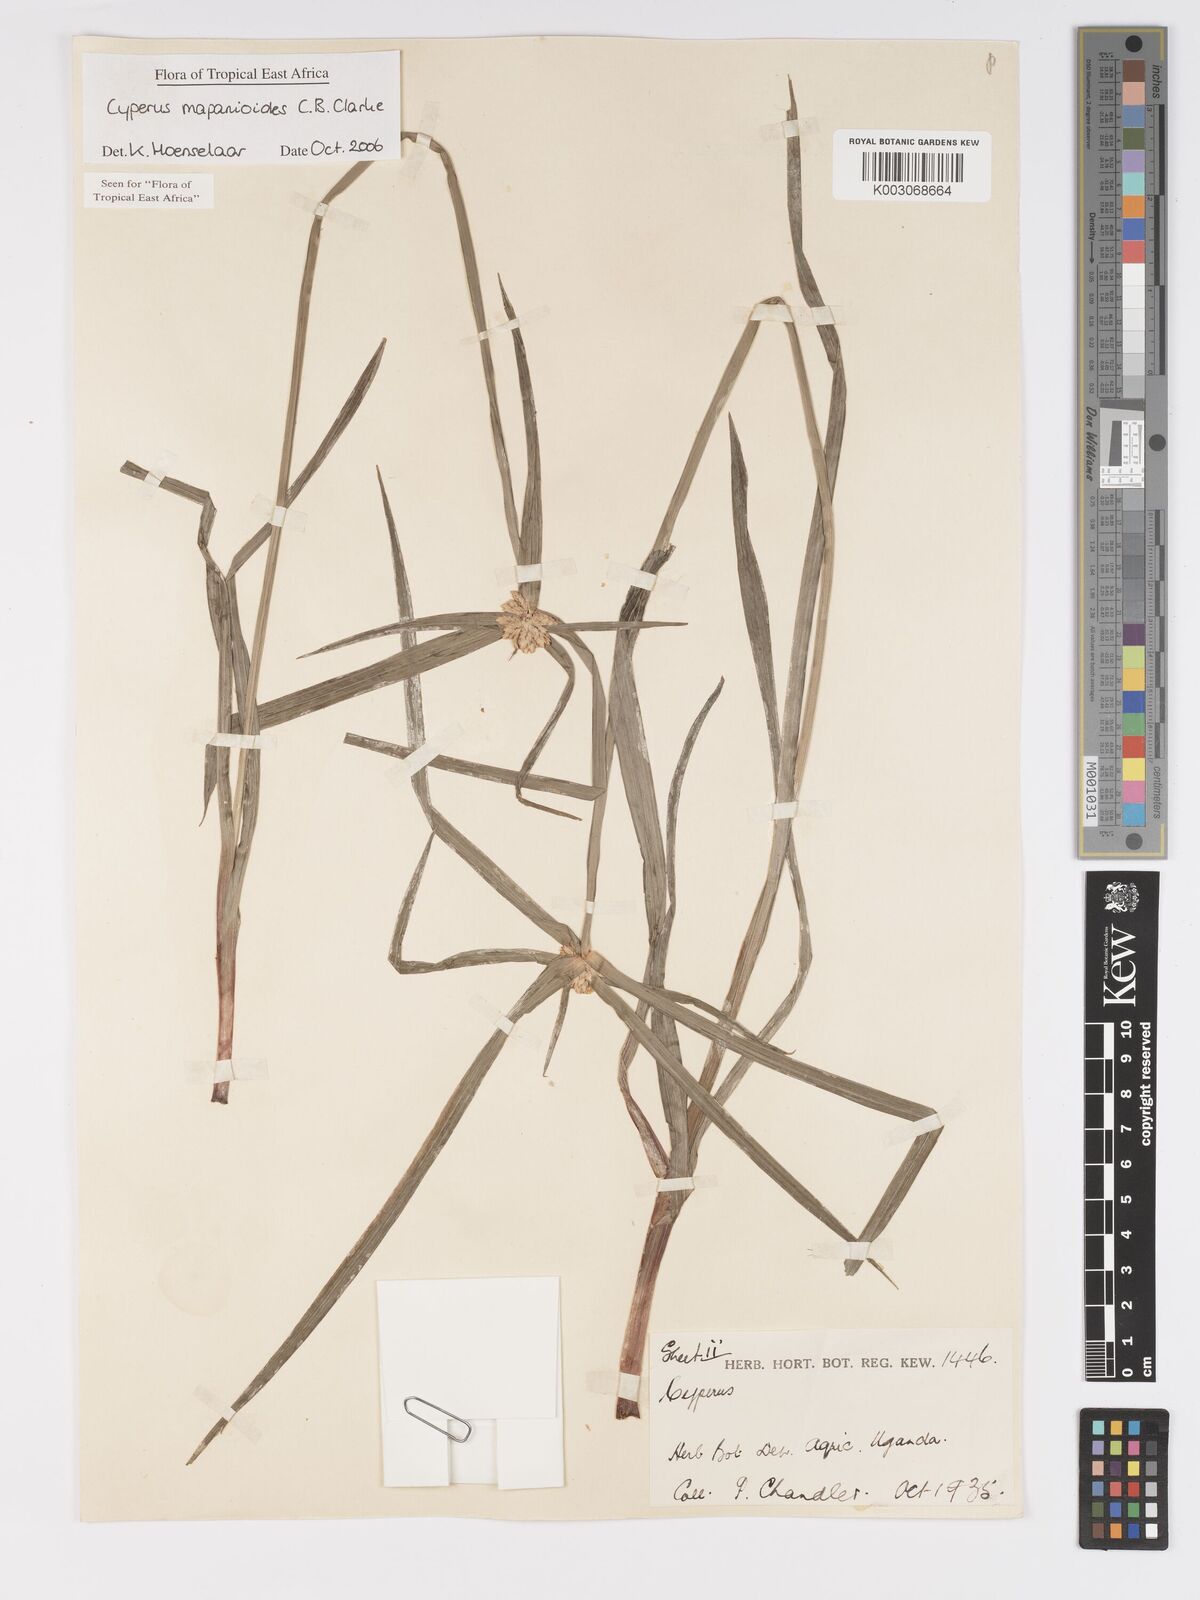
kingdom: Plantae
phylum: Tracheophyta
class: Liliopsida
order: Poales
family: Cyperaceae
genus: Cyperus
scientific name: Cyperus mapanioides
